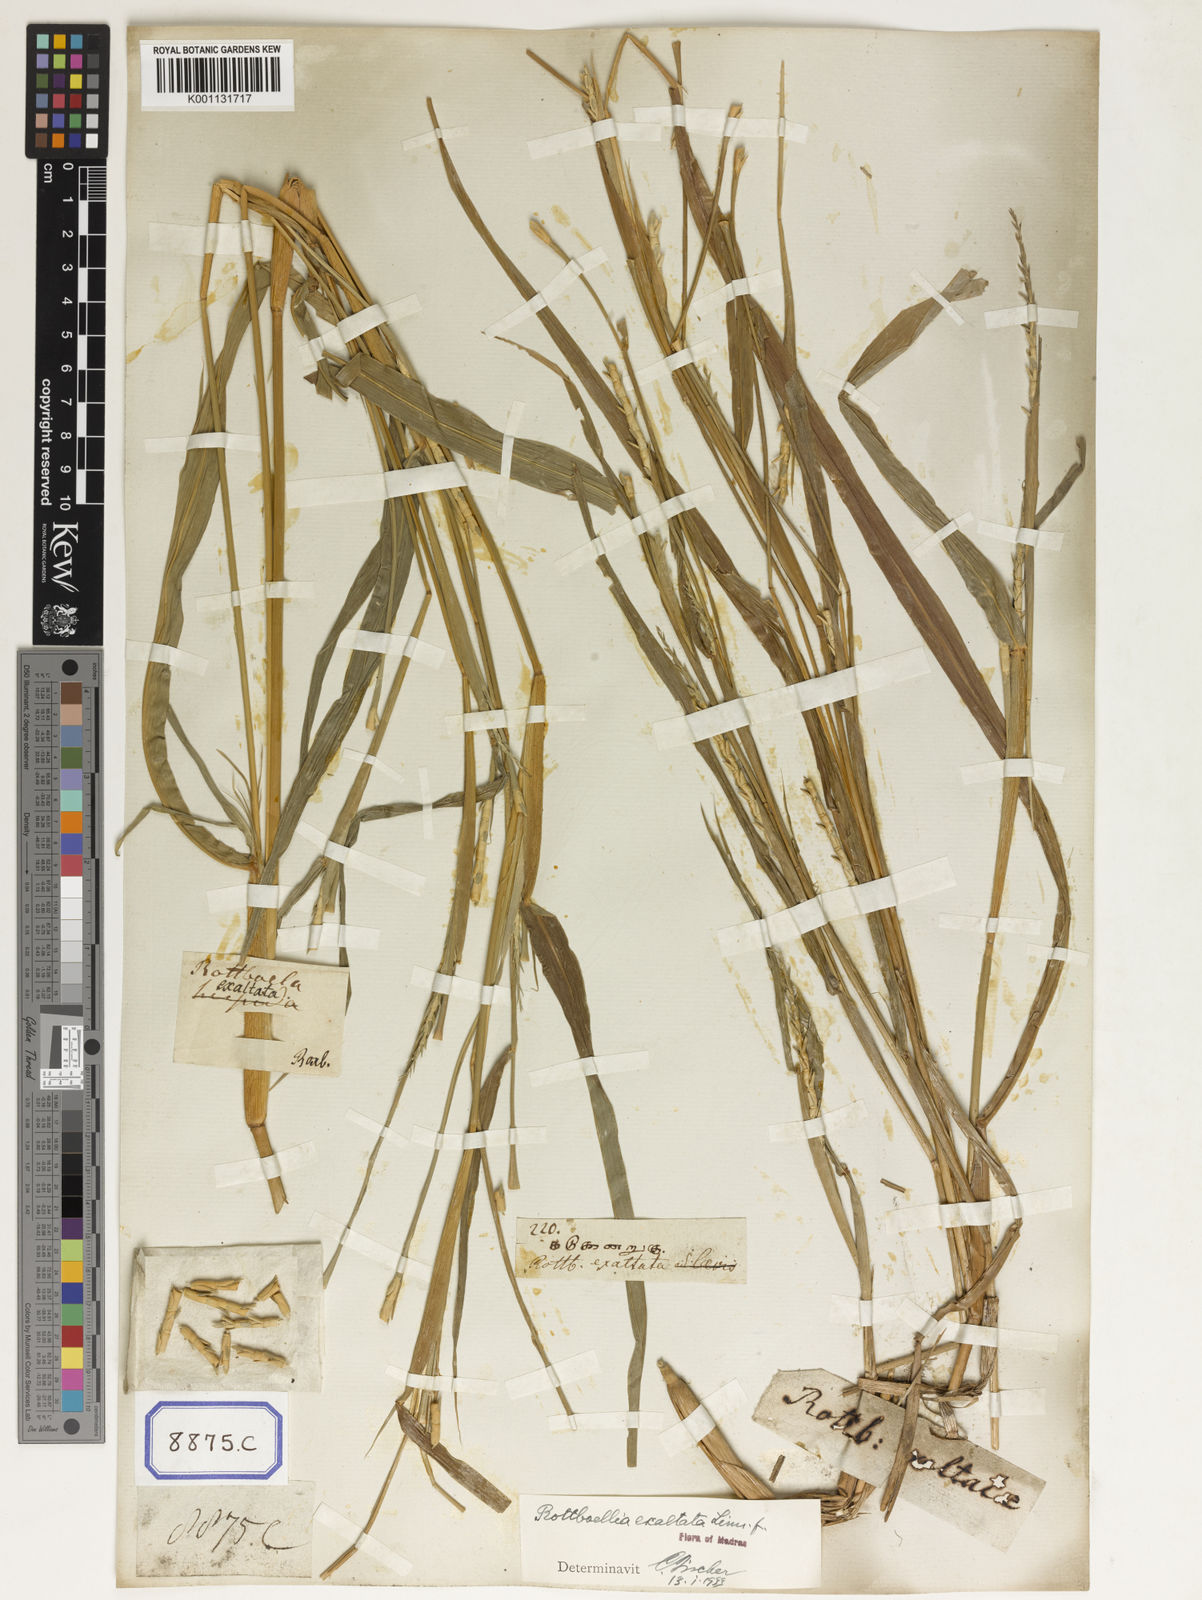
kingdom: Plantae
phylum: Tracheophyta
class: Liliopsida
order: Poales
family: Poaceae
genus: Ophiuros
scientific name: Ophiuros exaltatus
